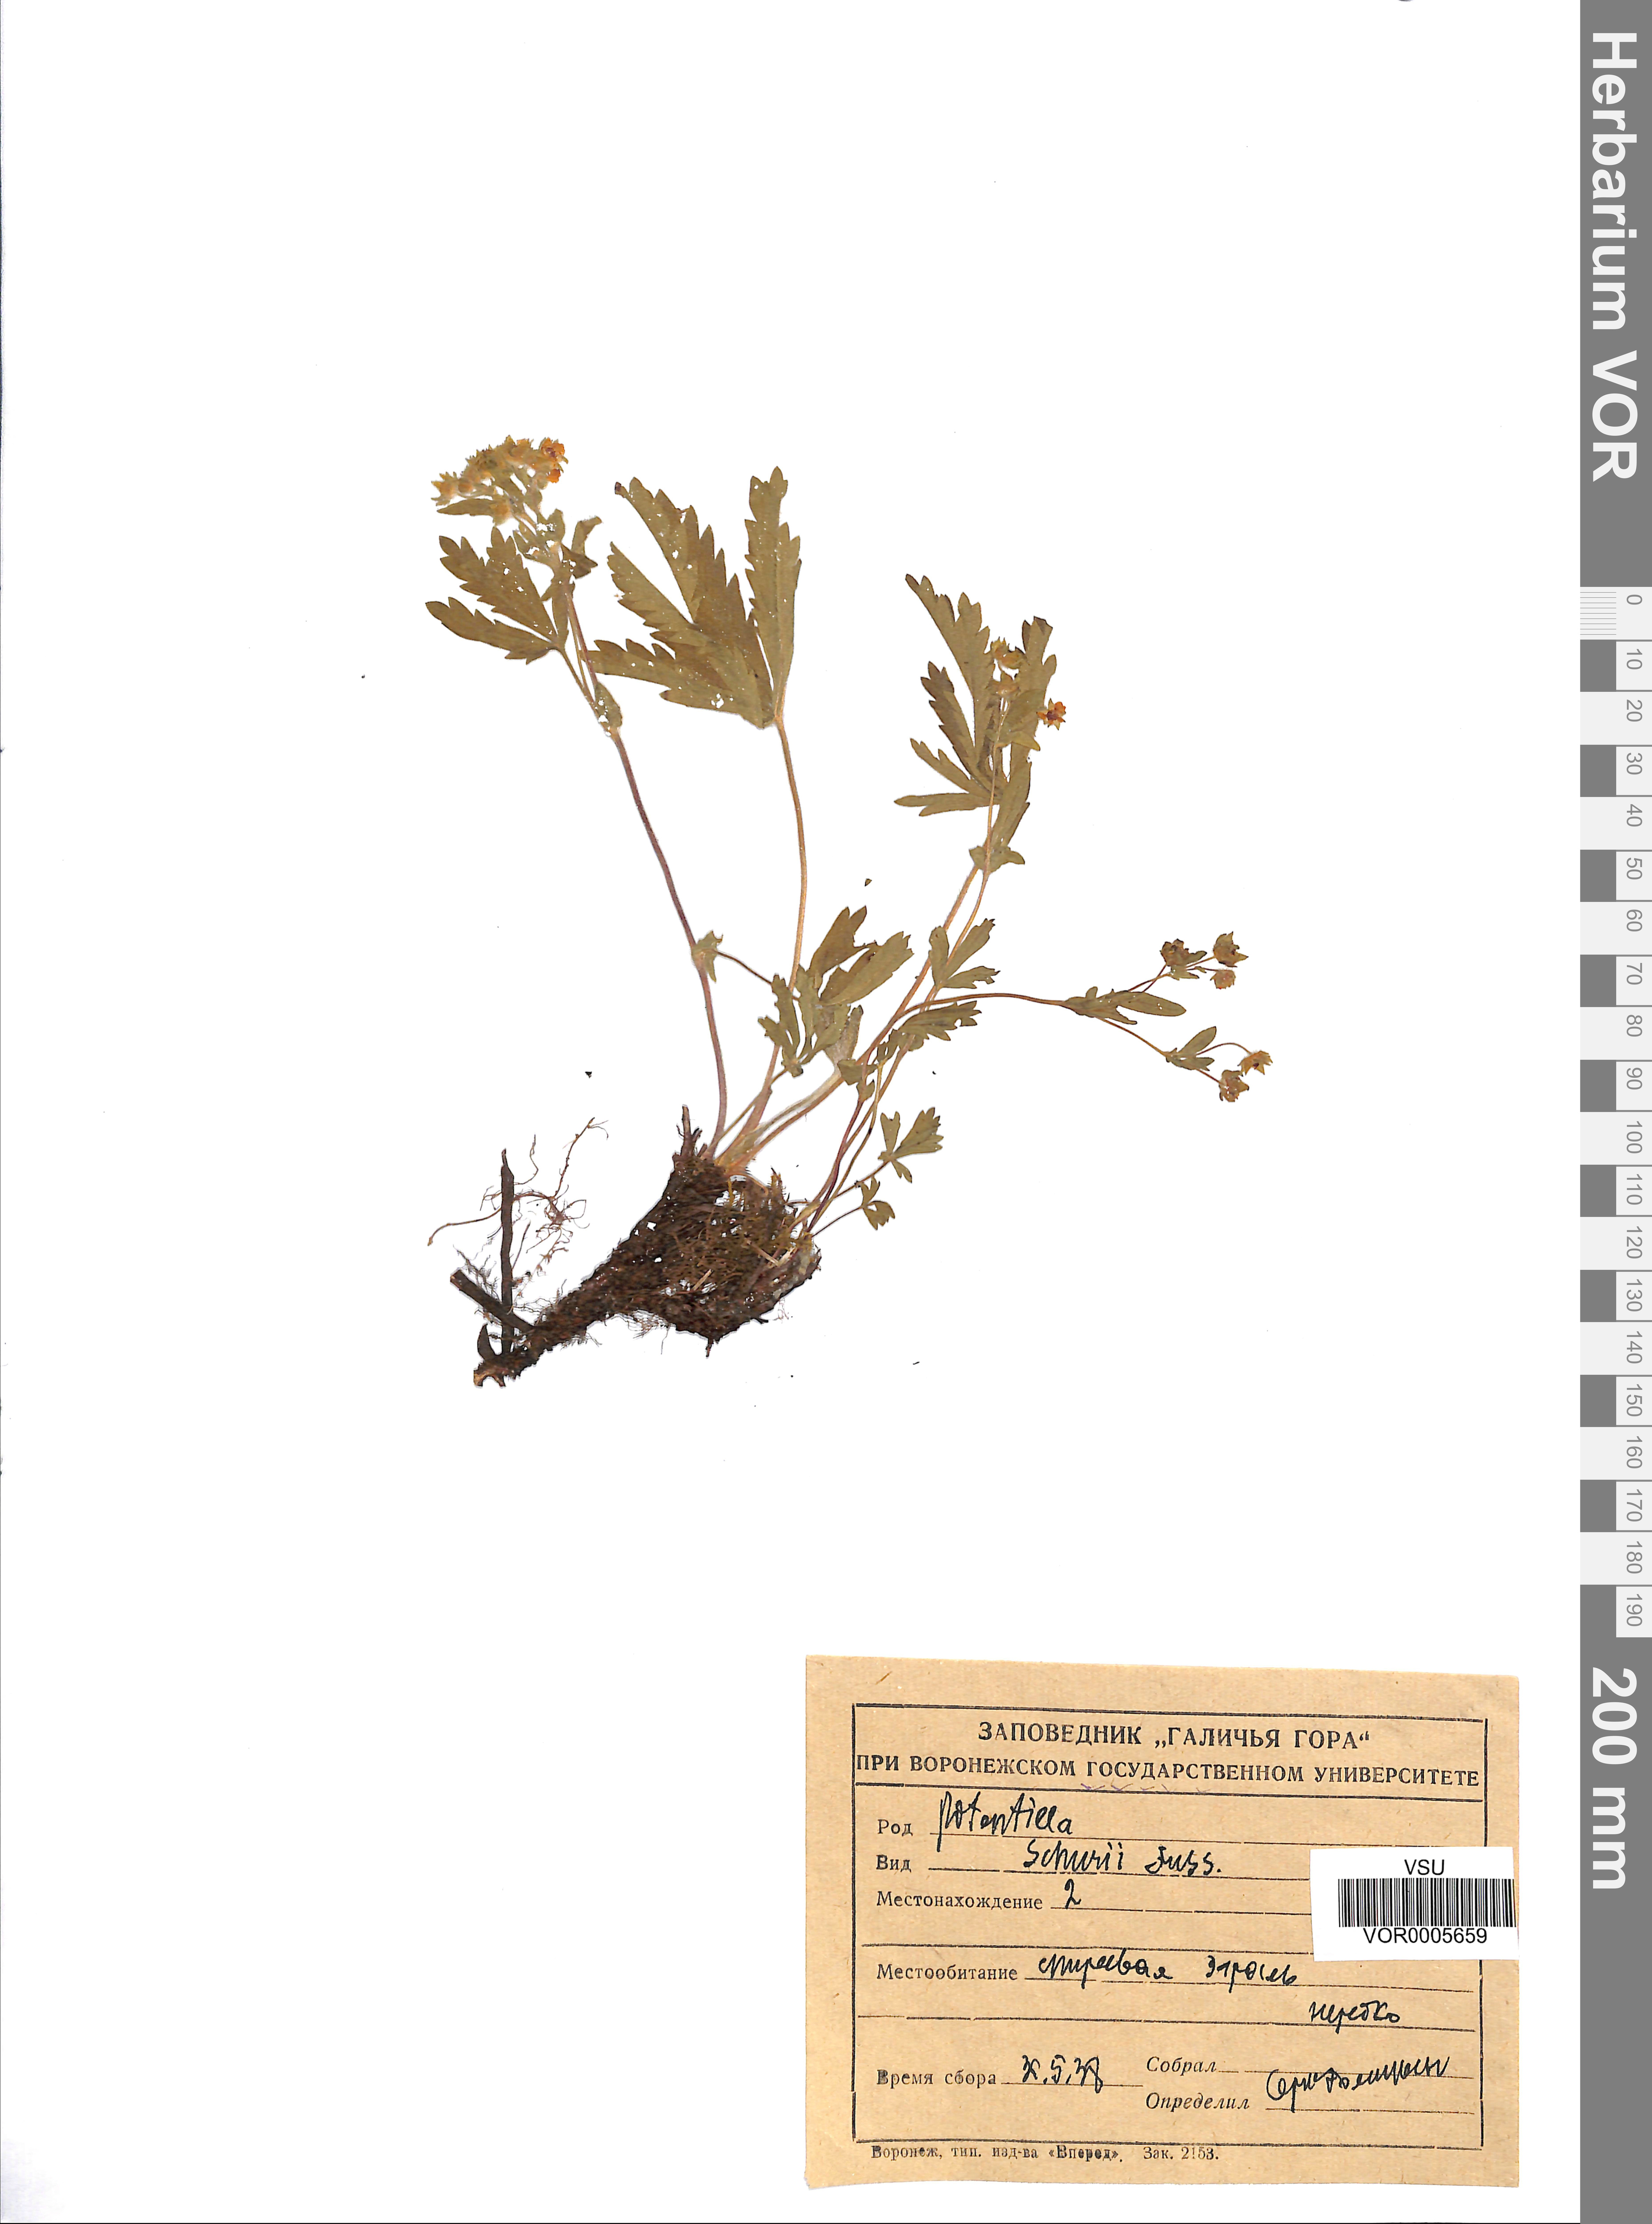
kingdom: Plantae
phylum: Tracheophyta
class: Magnoliopsida
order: Rosales
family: Rosaceae
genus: Potentilla
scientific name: Potentilla patula
